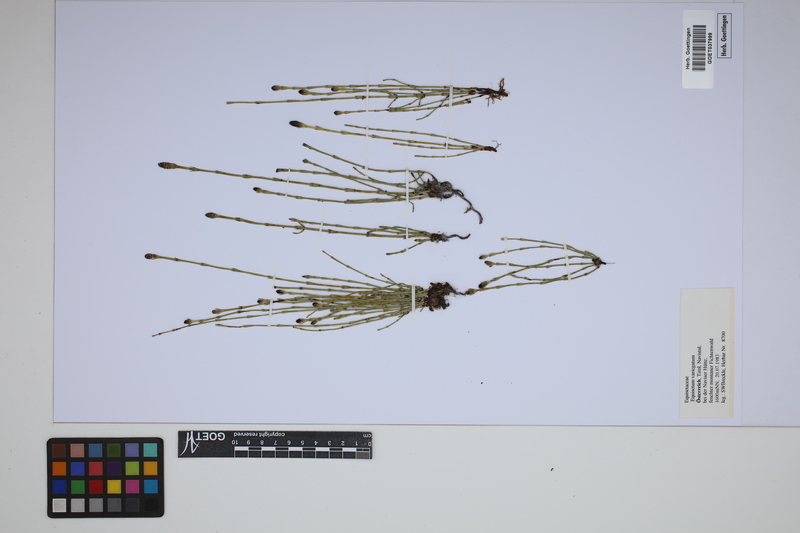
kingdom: Plantae
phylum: Tracheophyta
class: Polypodiopsida
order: Equisetales
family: Equisetaceae
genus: Equisetum
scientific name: Equisetum variegatum
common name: Variegated horsetail
